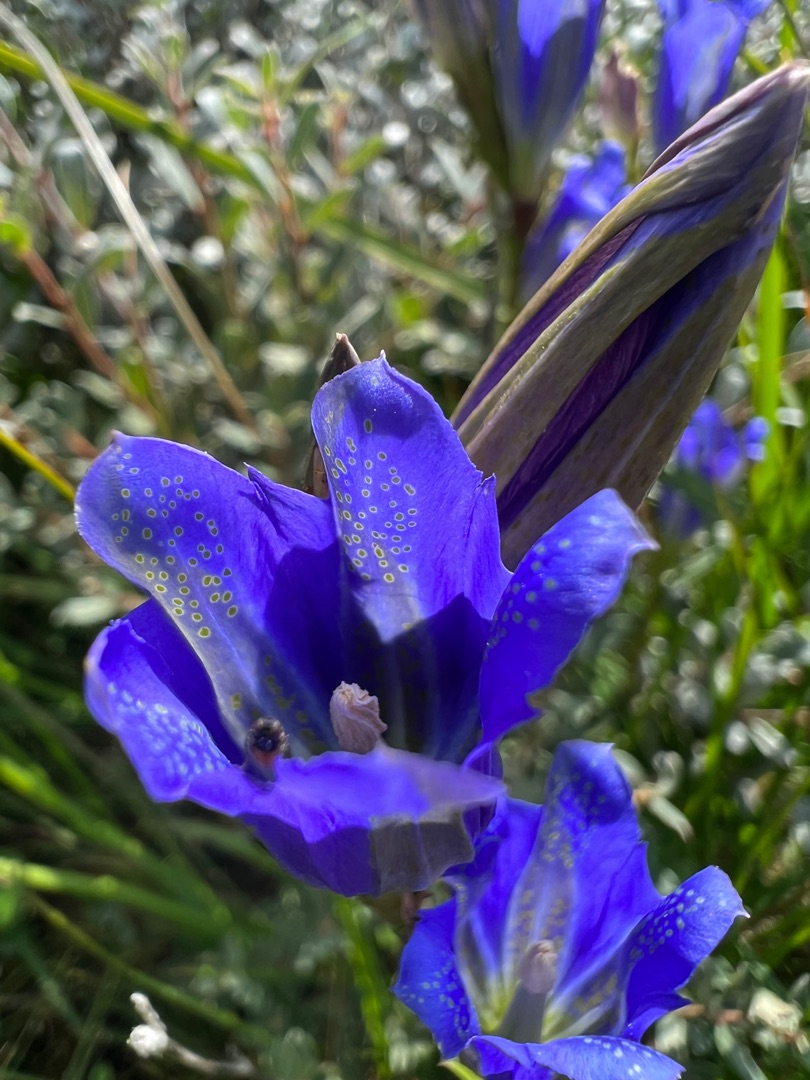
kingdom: Plantae
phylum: Tracheophyta
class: Magnoliopsida
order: Gentianales
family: Gentianaceae
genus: Gentiana
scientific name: Gentiana pneumonanthe
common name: Klokke-ensian
